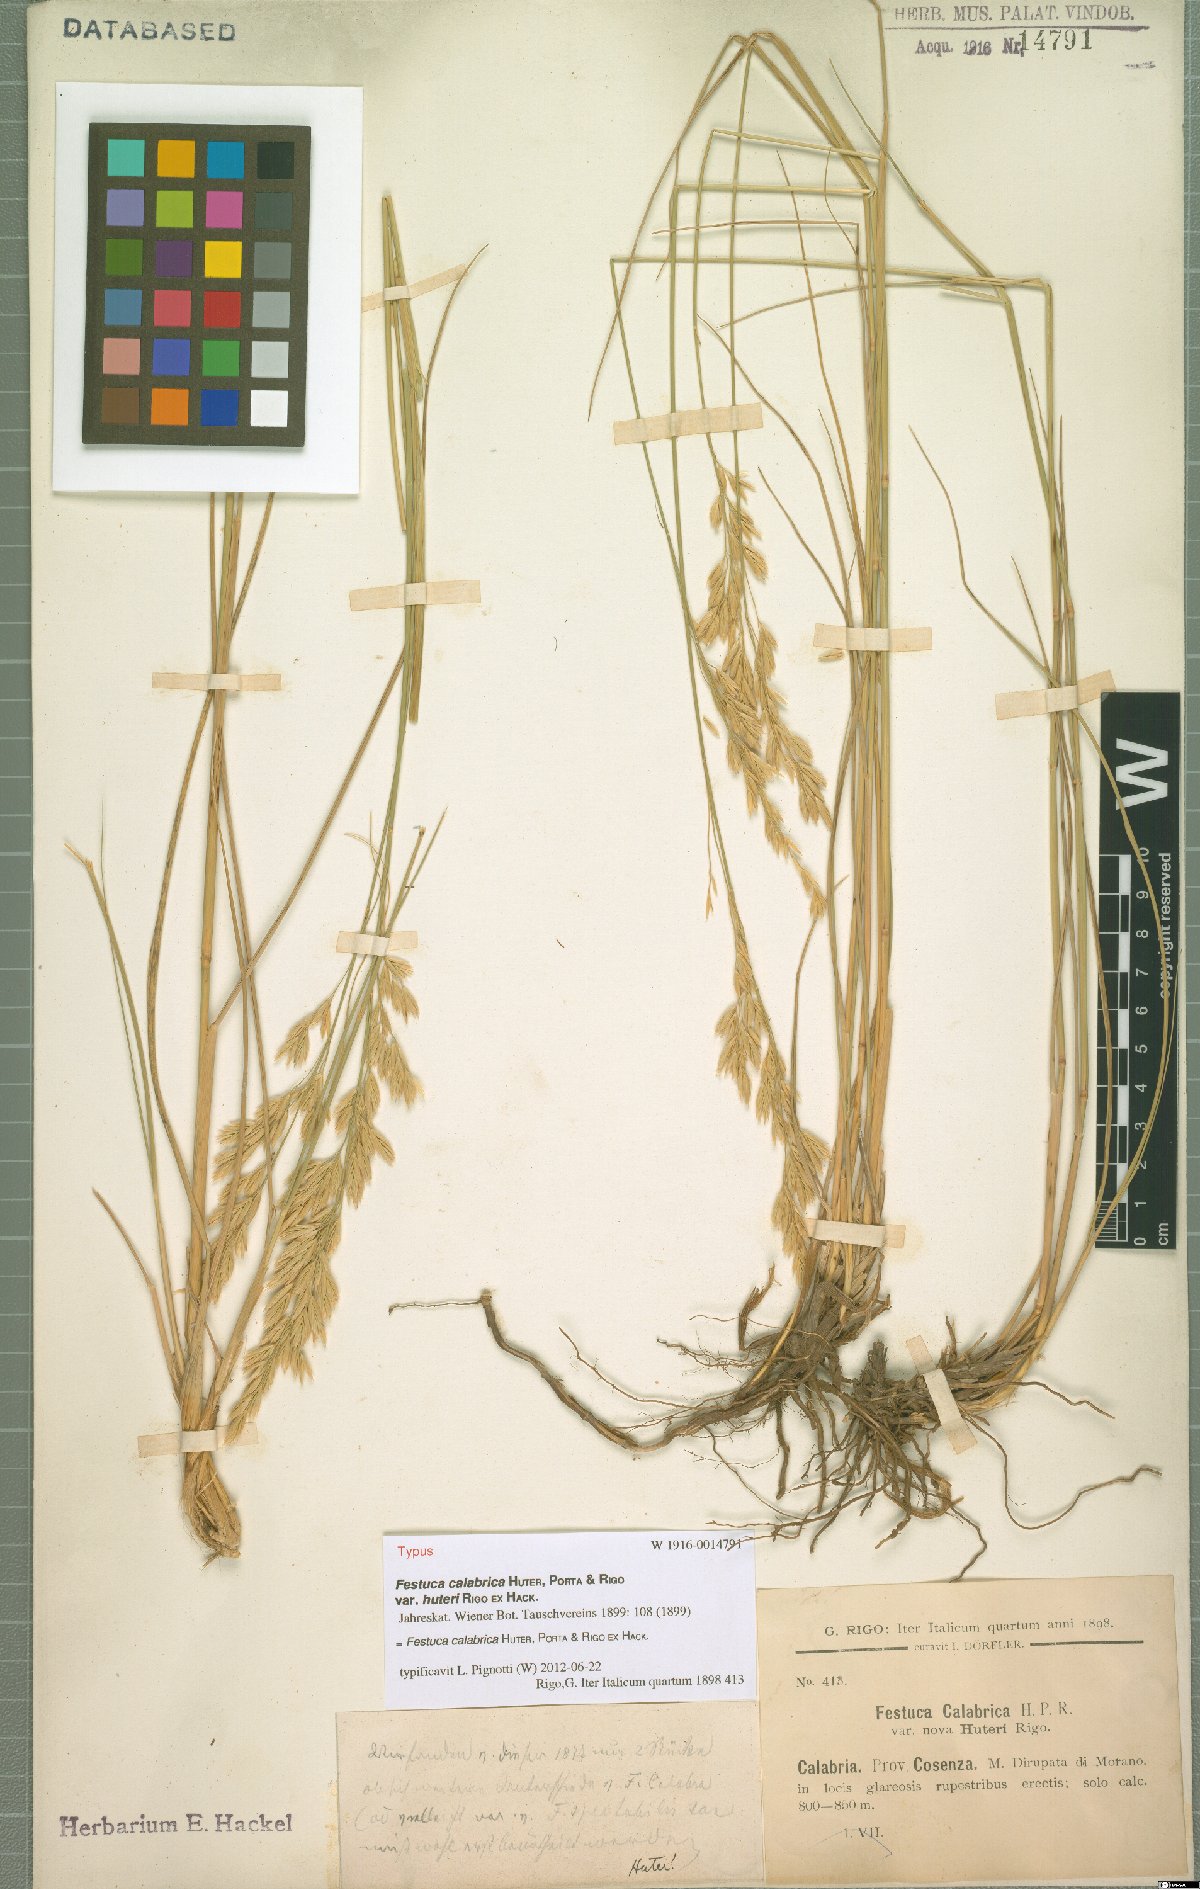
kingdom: Plantae
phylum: Tracheophyta
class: Liliopsida
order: Poales
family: Poaceae
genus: Festuca
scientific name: Festuca calabrica
